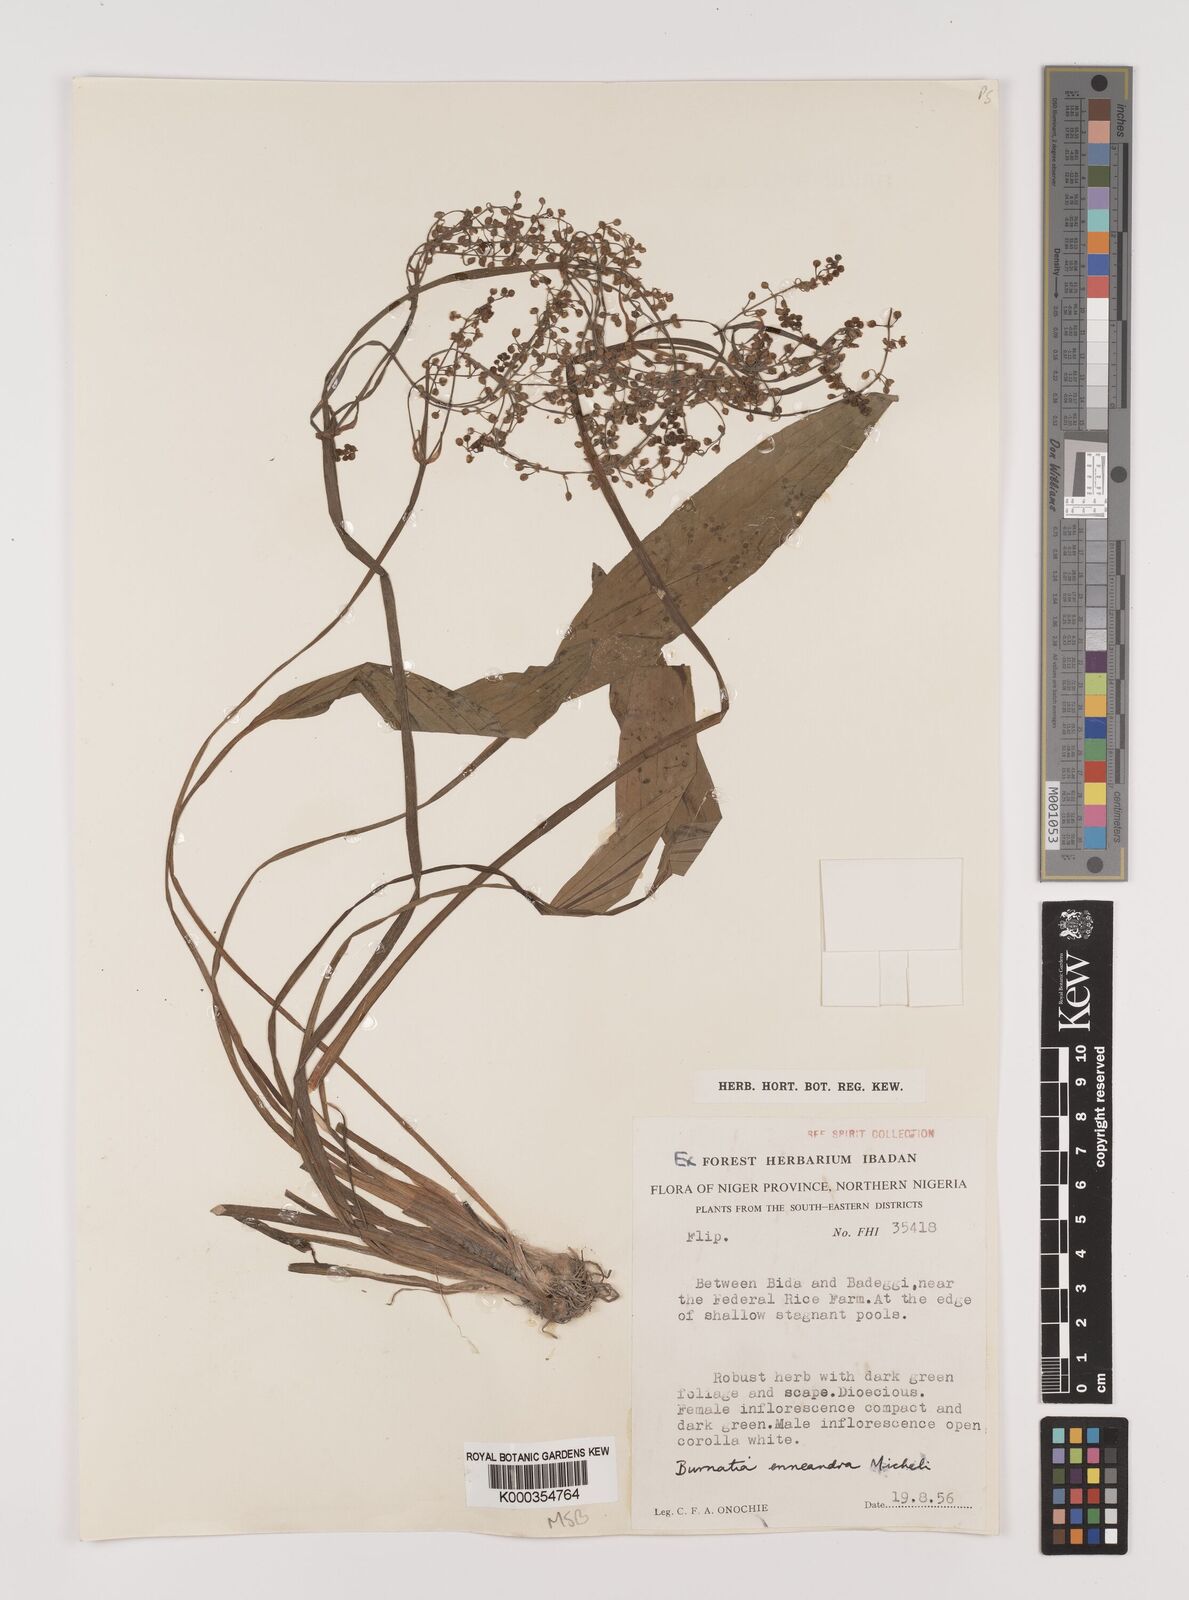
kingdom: Plantae
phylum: Tracheophyta
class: Liliopsida
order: Alismatales
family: Alismataceae
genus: Burnatia
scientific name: Burnatia enneandra
